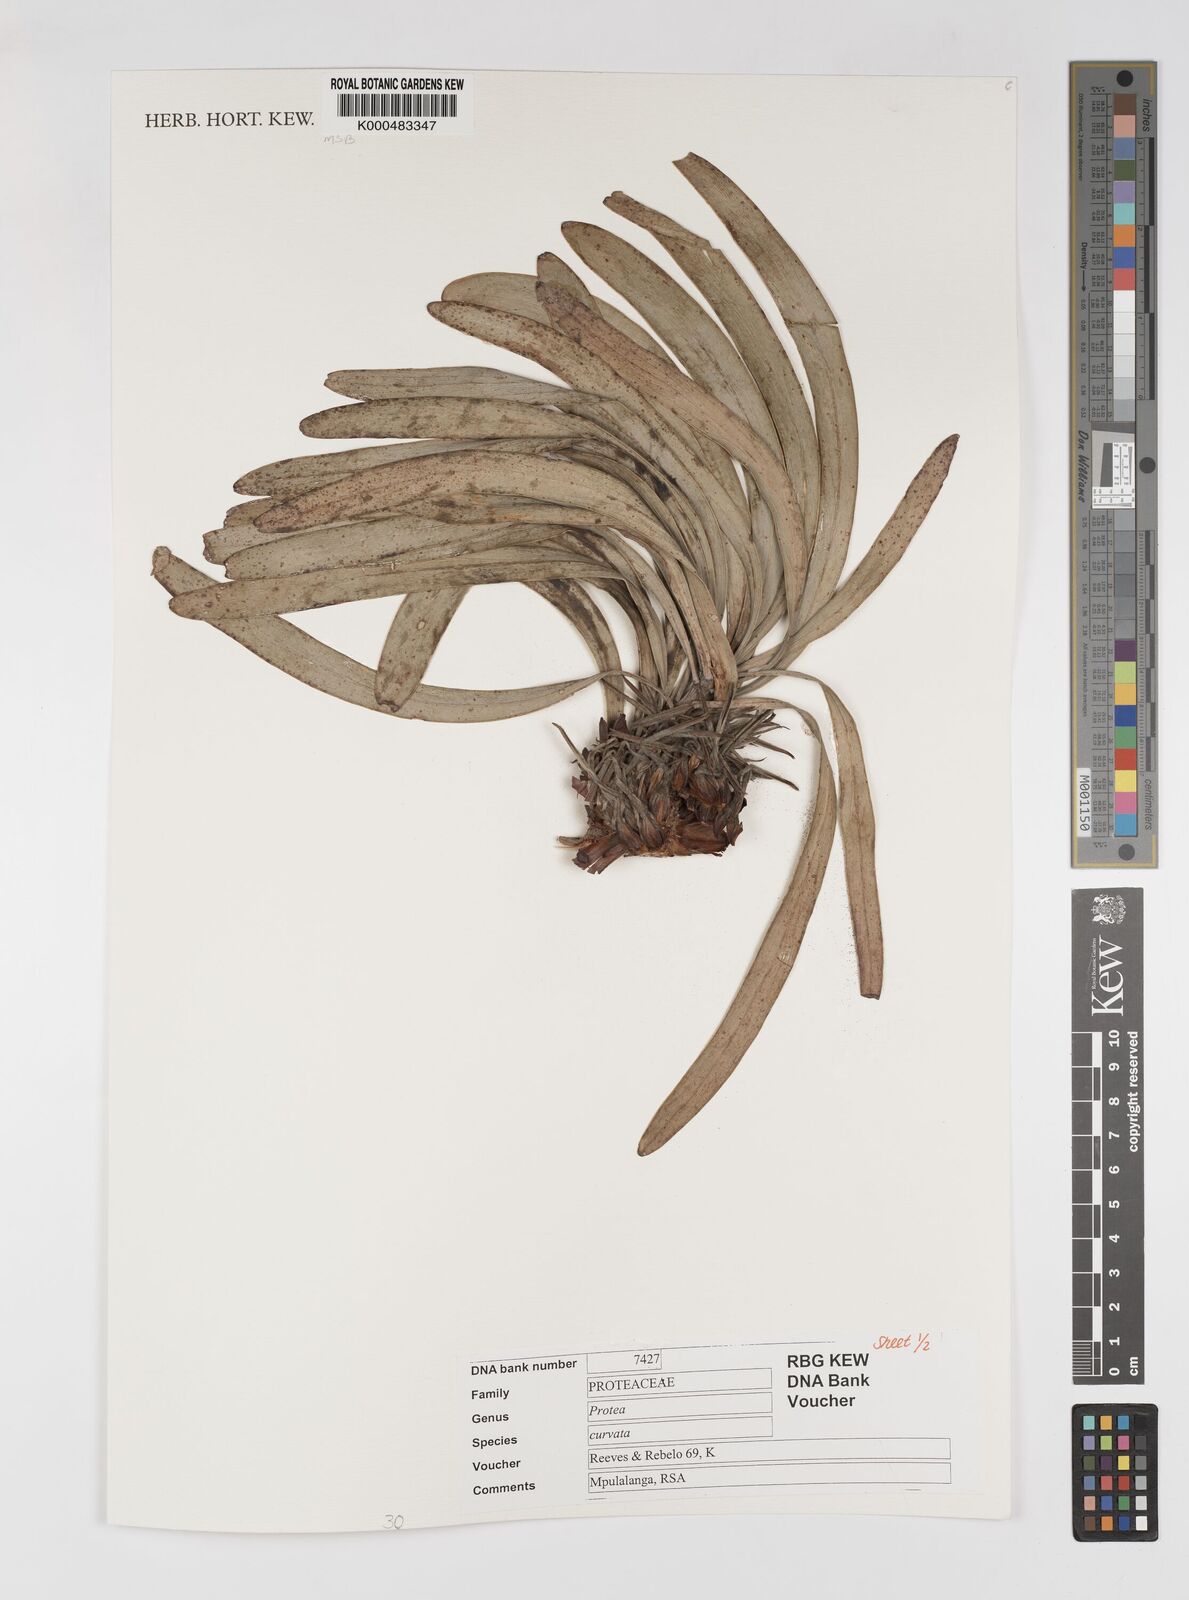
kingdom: Plantae
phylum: Tracheophyta
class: Magnoliopsida
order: Proteales
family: Proteaceae
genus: Protea
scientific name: Protea curvata
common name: Barberton lowveld sugarbush
